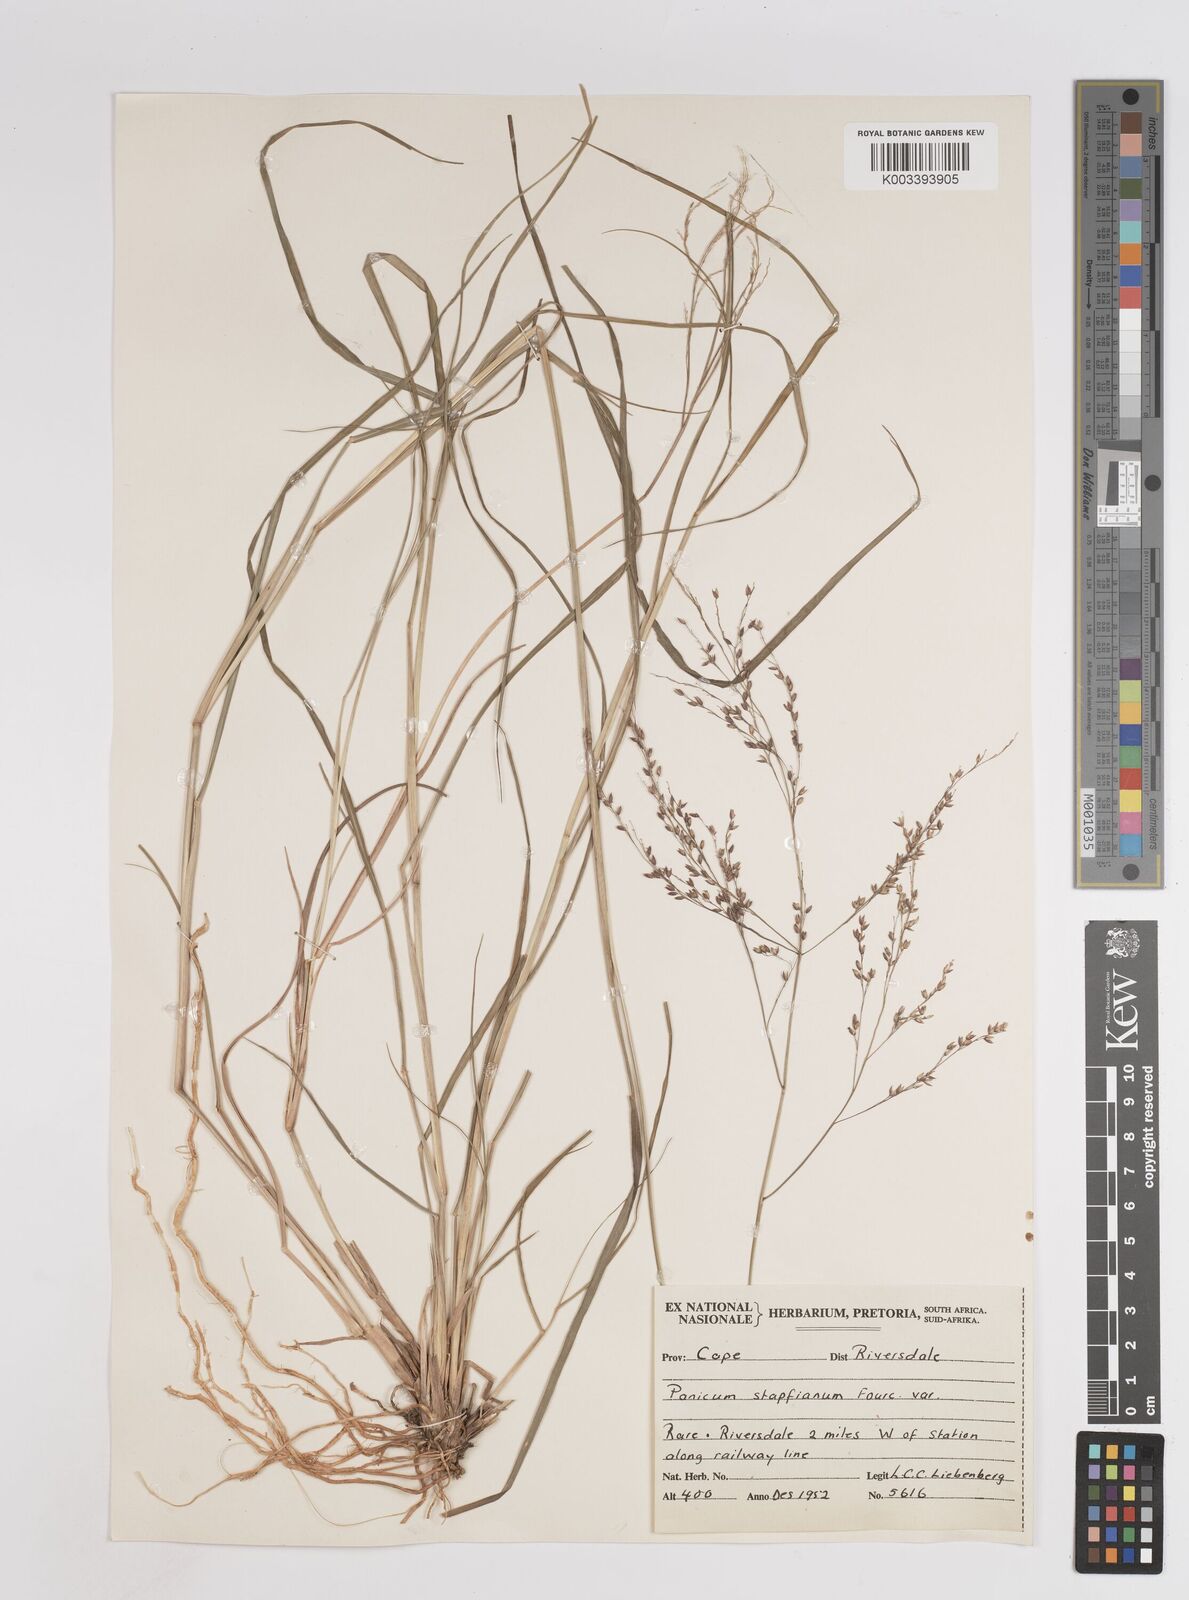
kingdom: Plantae
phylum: Tracheophyta
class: Liliopsida
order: Poales
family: Poaceae
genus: Panicum
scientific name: Panicum stapfianum
